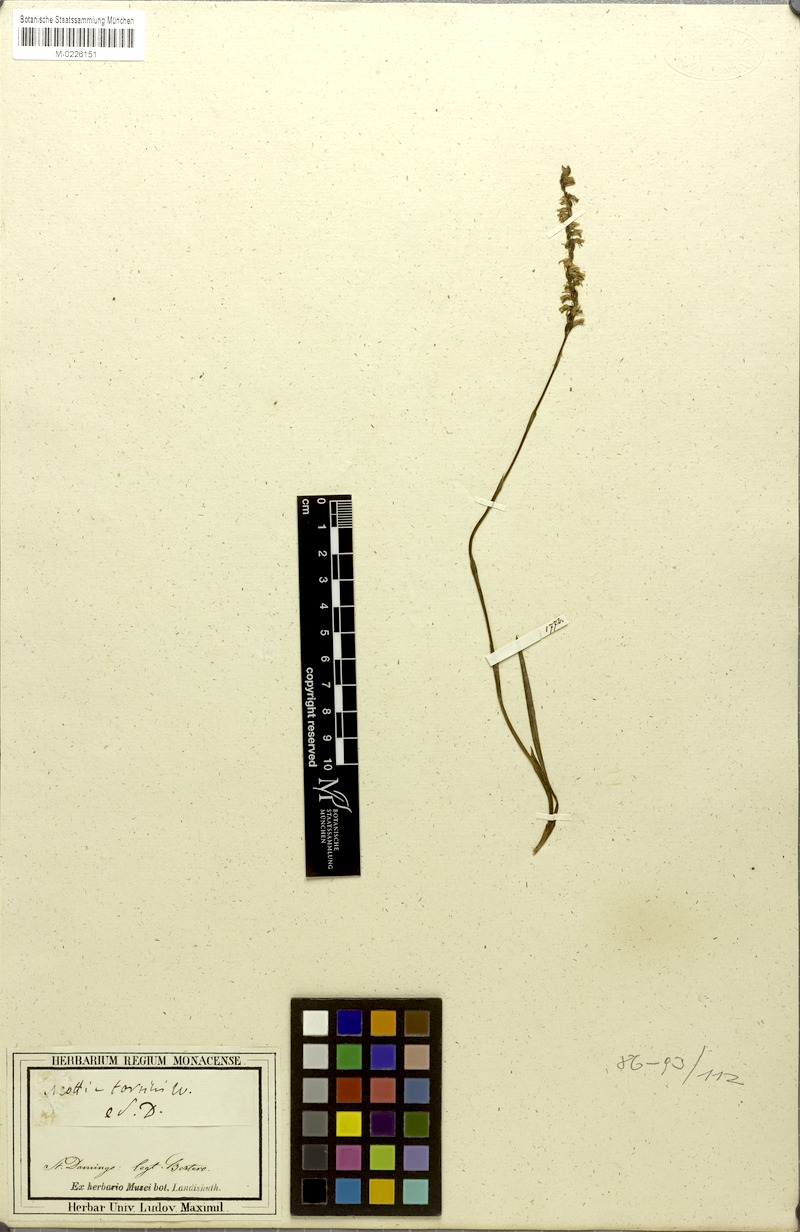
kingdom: Plantae
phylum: Tracheophyta
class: Liliopsida
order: Asparagales
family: Orchidaceae
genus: Spiranthes
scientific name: Spiranthes torta
